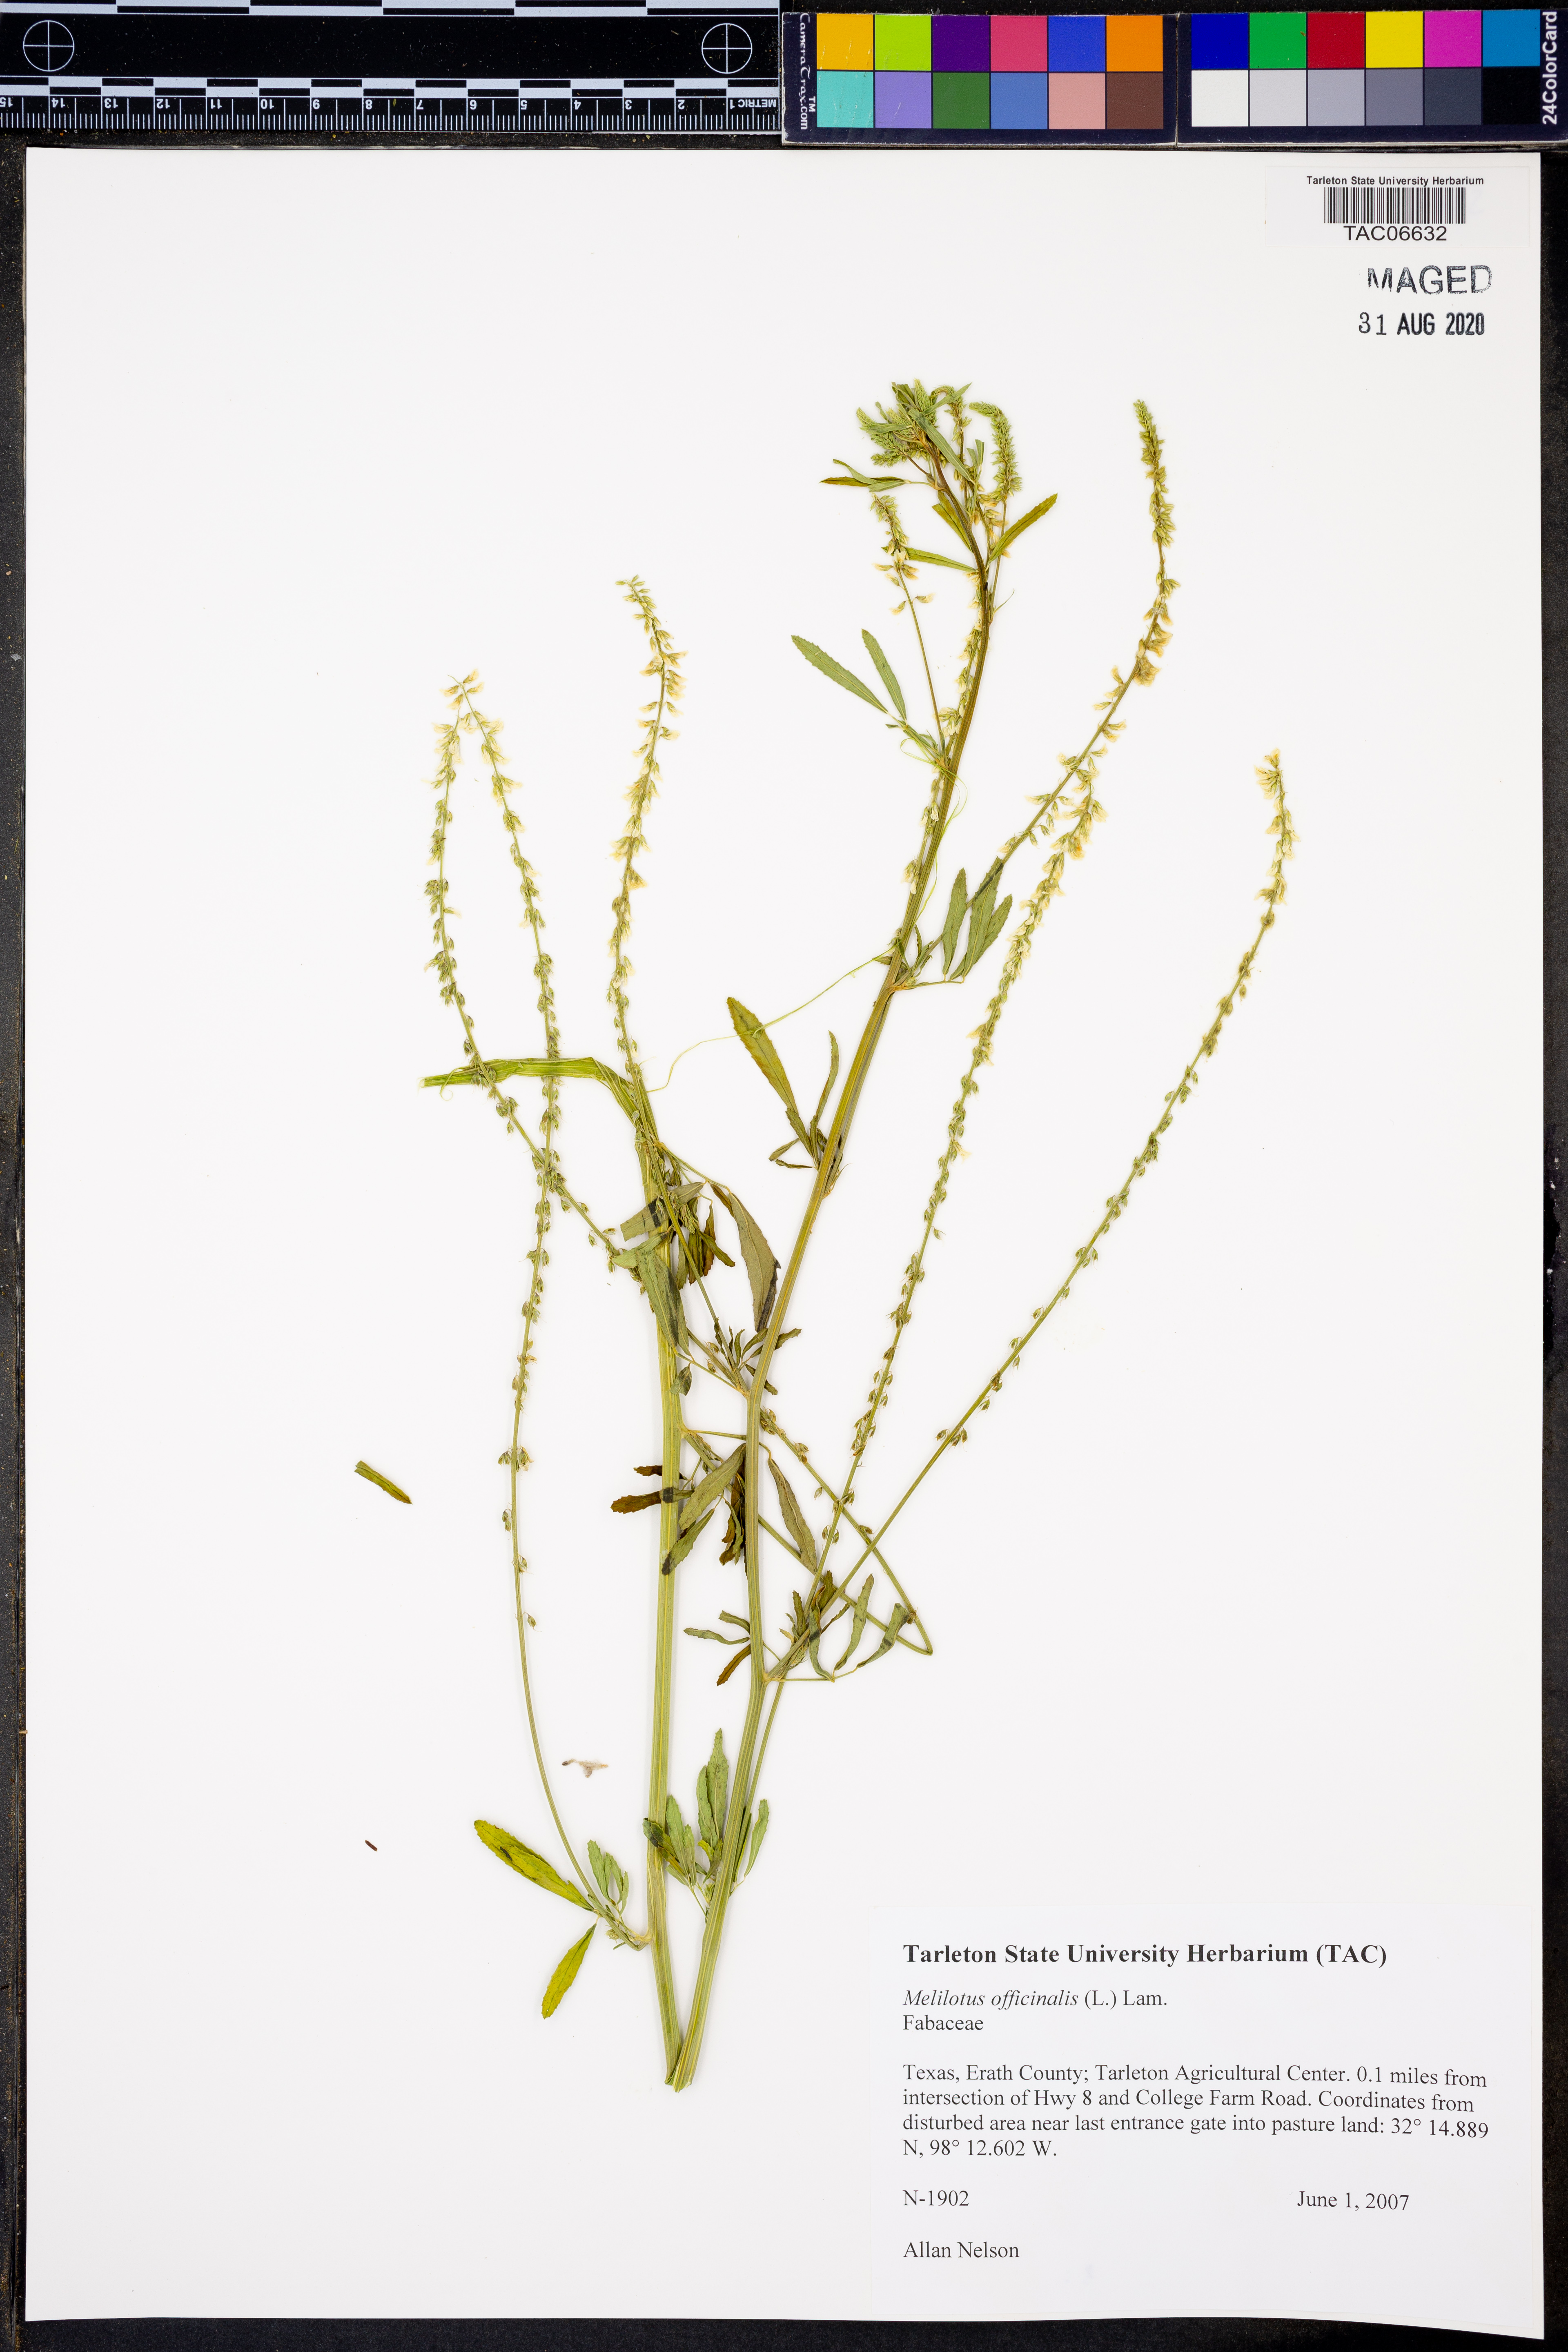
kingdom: Plantae
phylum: Tracheophyta
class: Magnoliopsida
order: Fabales
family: Fabaceae
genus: Melilotus
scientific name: Melilotus officinalis
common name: Sweetclover
